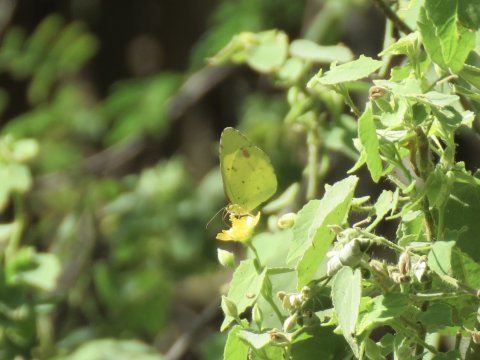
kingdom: Animalia
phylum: Arthropoda
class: Insecta
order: Lepidoptera
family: Pieridae
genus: Pyrisitia
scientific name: Pyrisitia lisa
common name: Little Yellow
